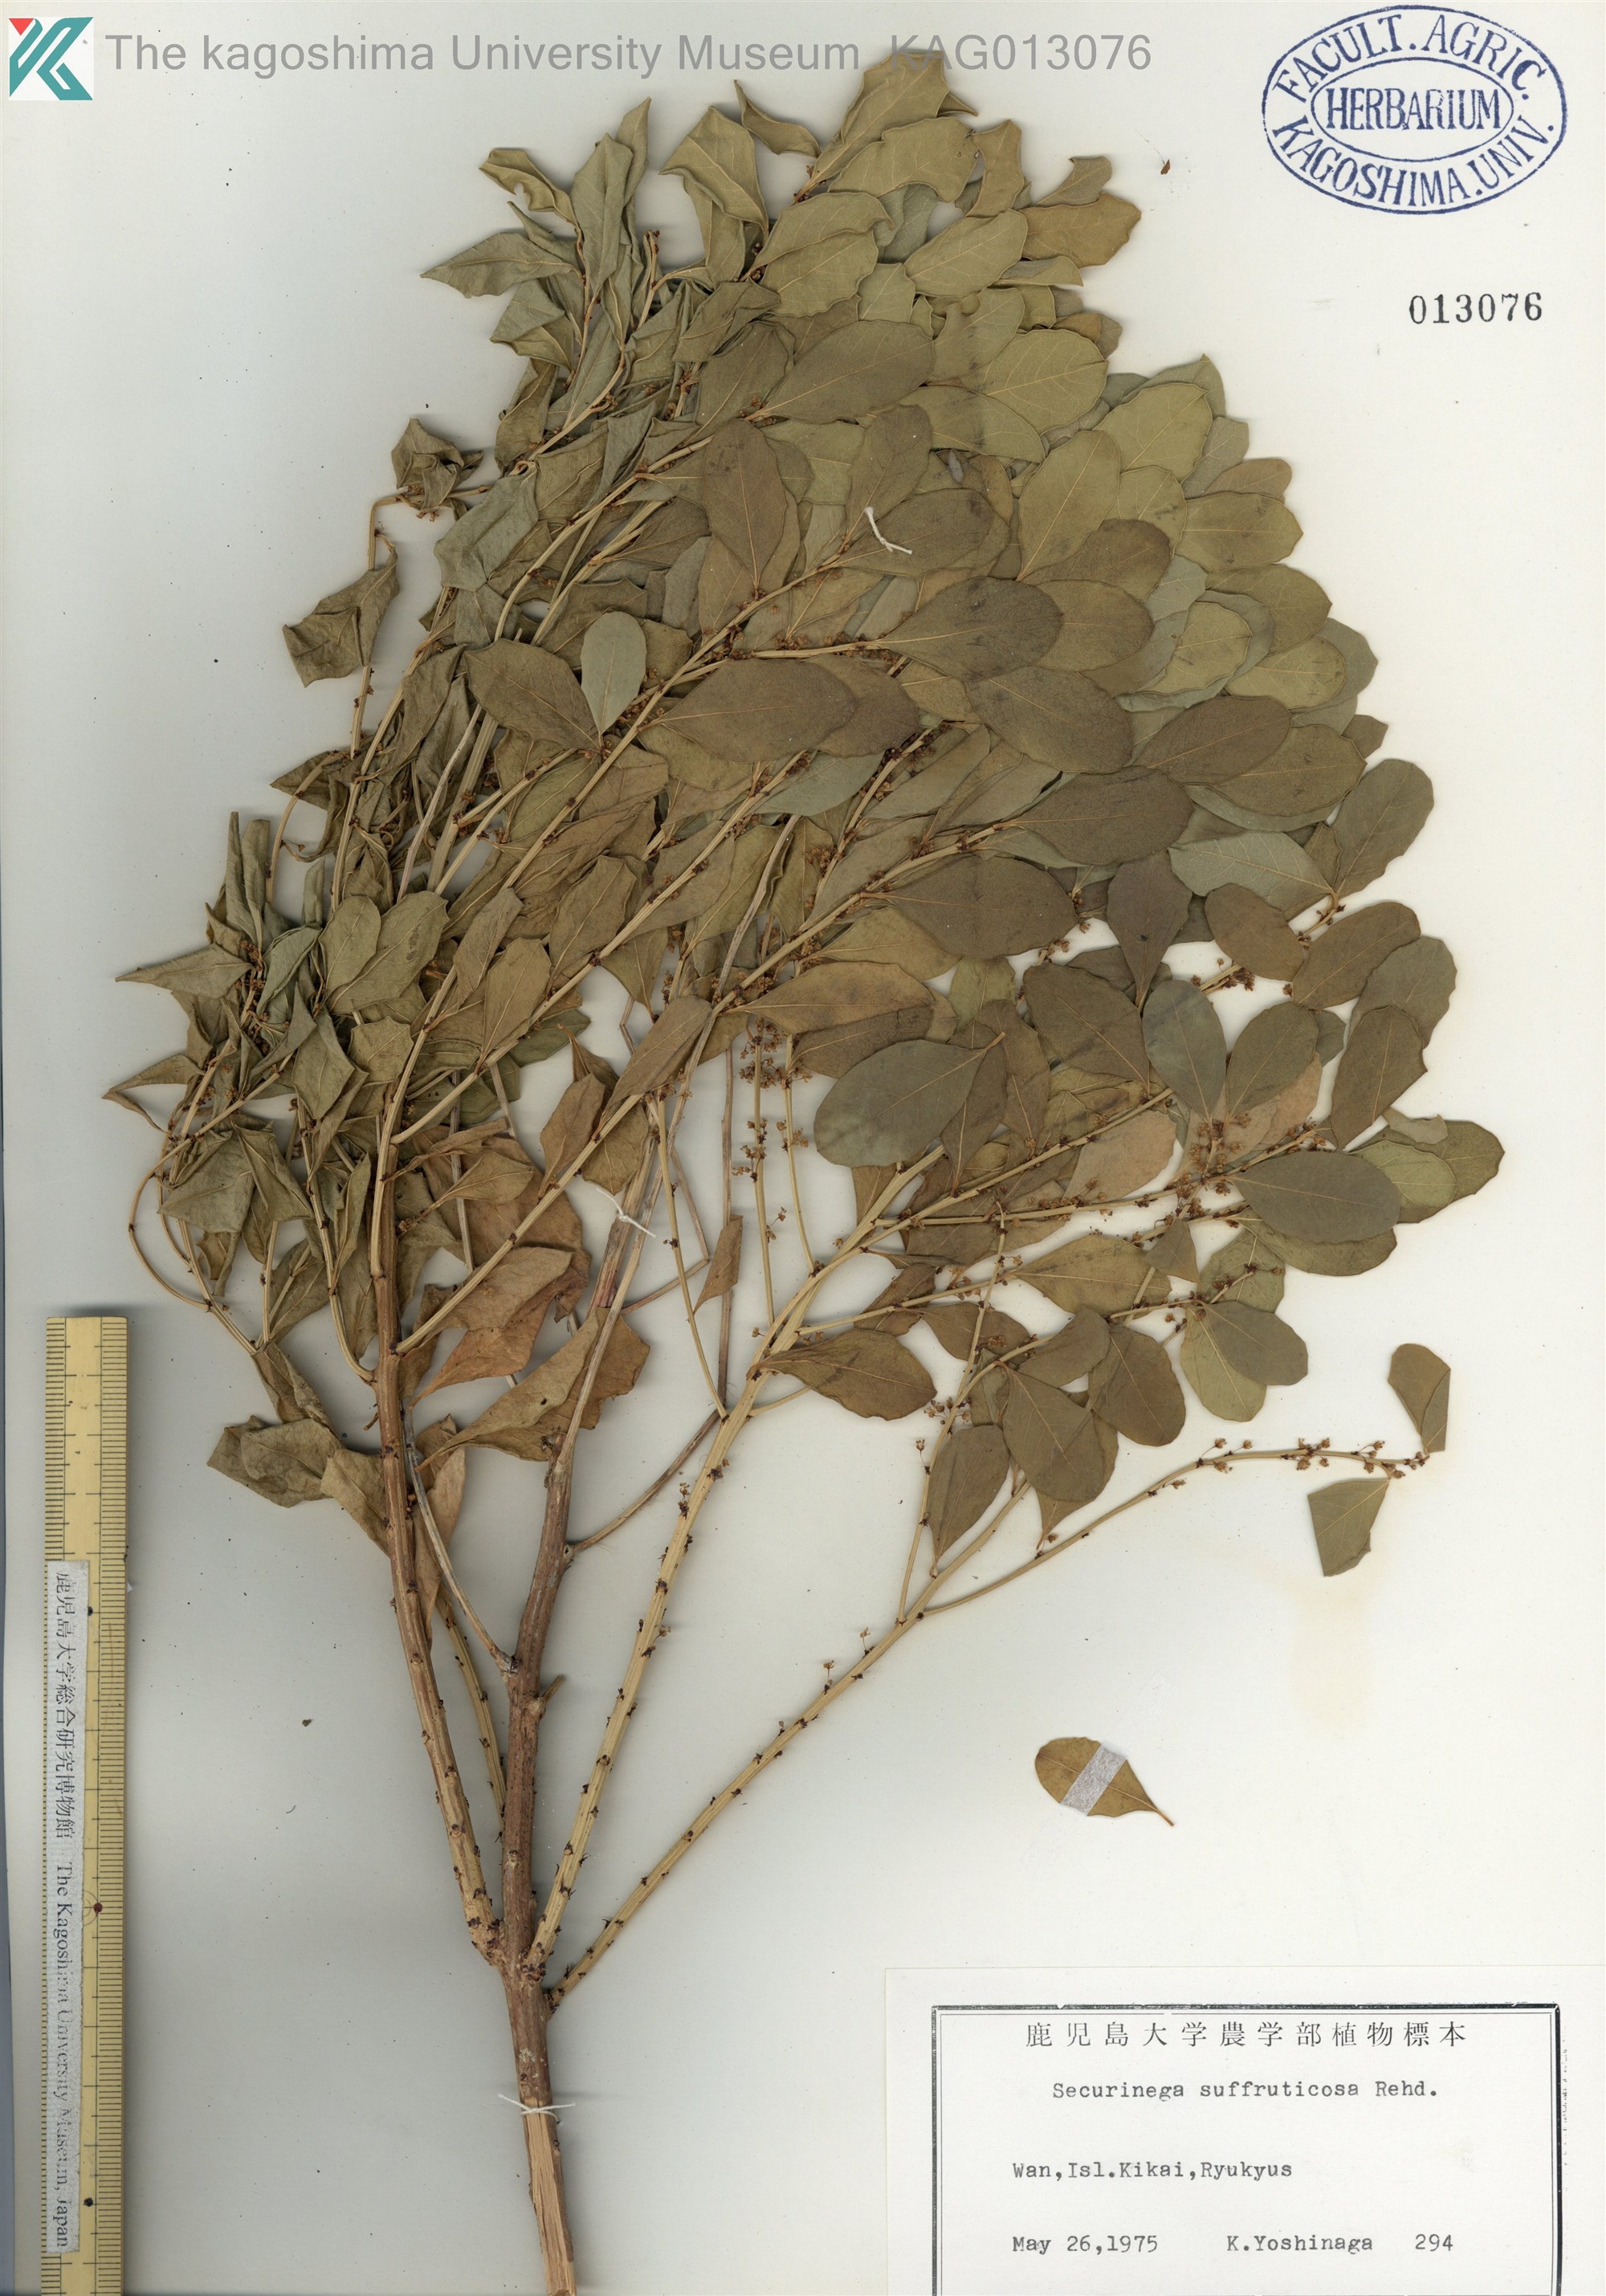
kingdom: Plantae
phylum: Tracheophyta
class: Magnoliopsida
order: Malpighiales
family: Phyllanthaceae
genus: Flueggea
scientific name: Flueggea suffruticosa
